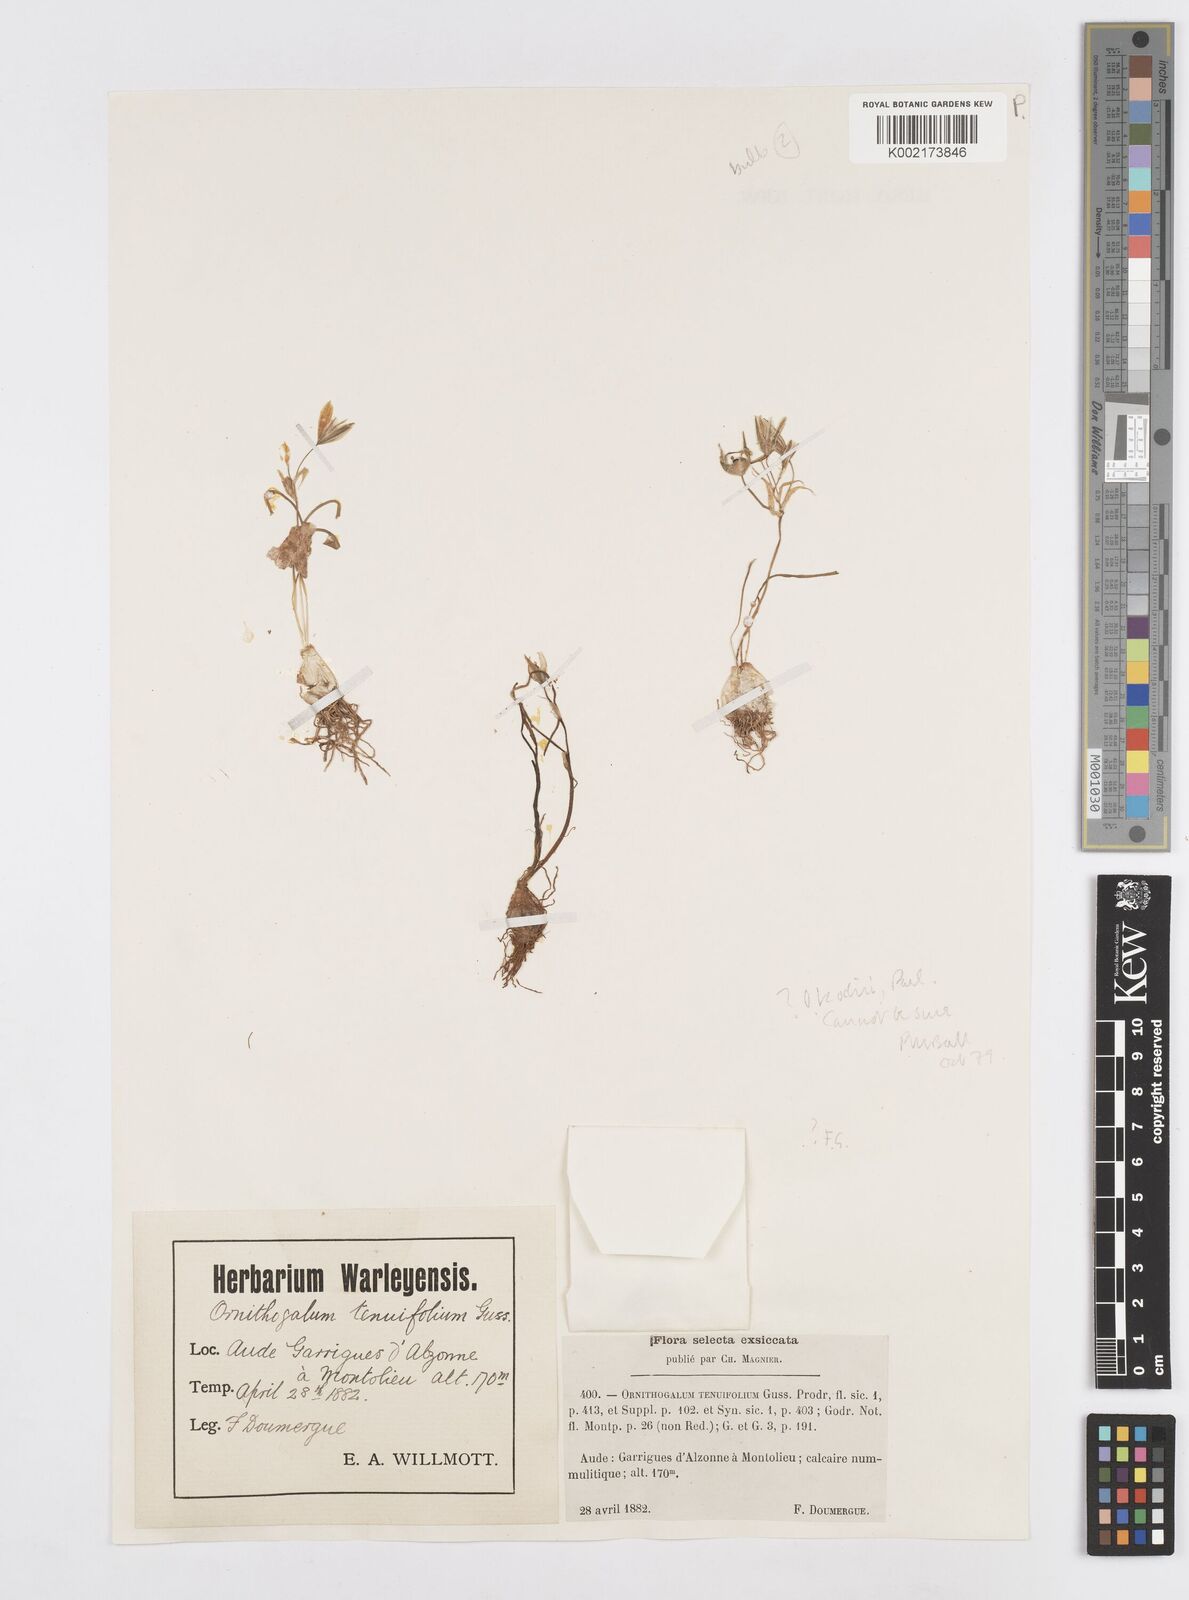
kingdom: Plantae
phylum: Tracheophyta
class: Liliopsida
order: Asparagales
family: Asparagaceae
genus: Ornithogalum
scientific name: Ornithogalum orthophyllum
